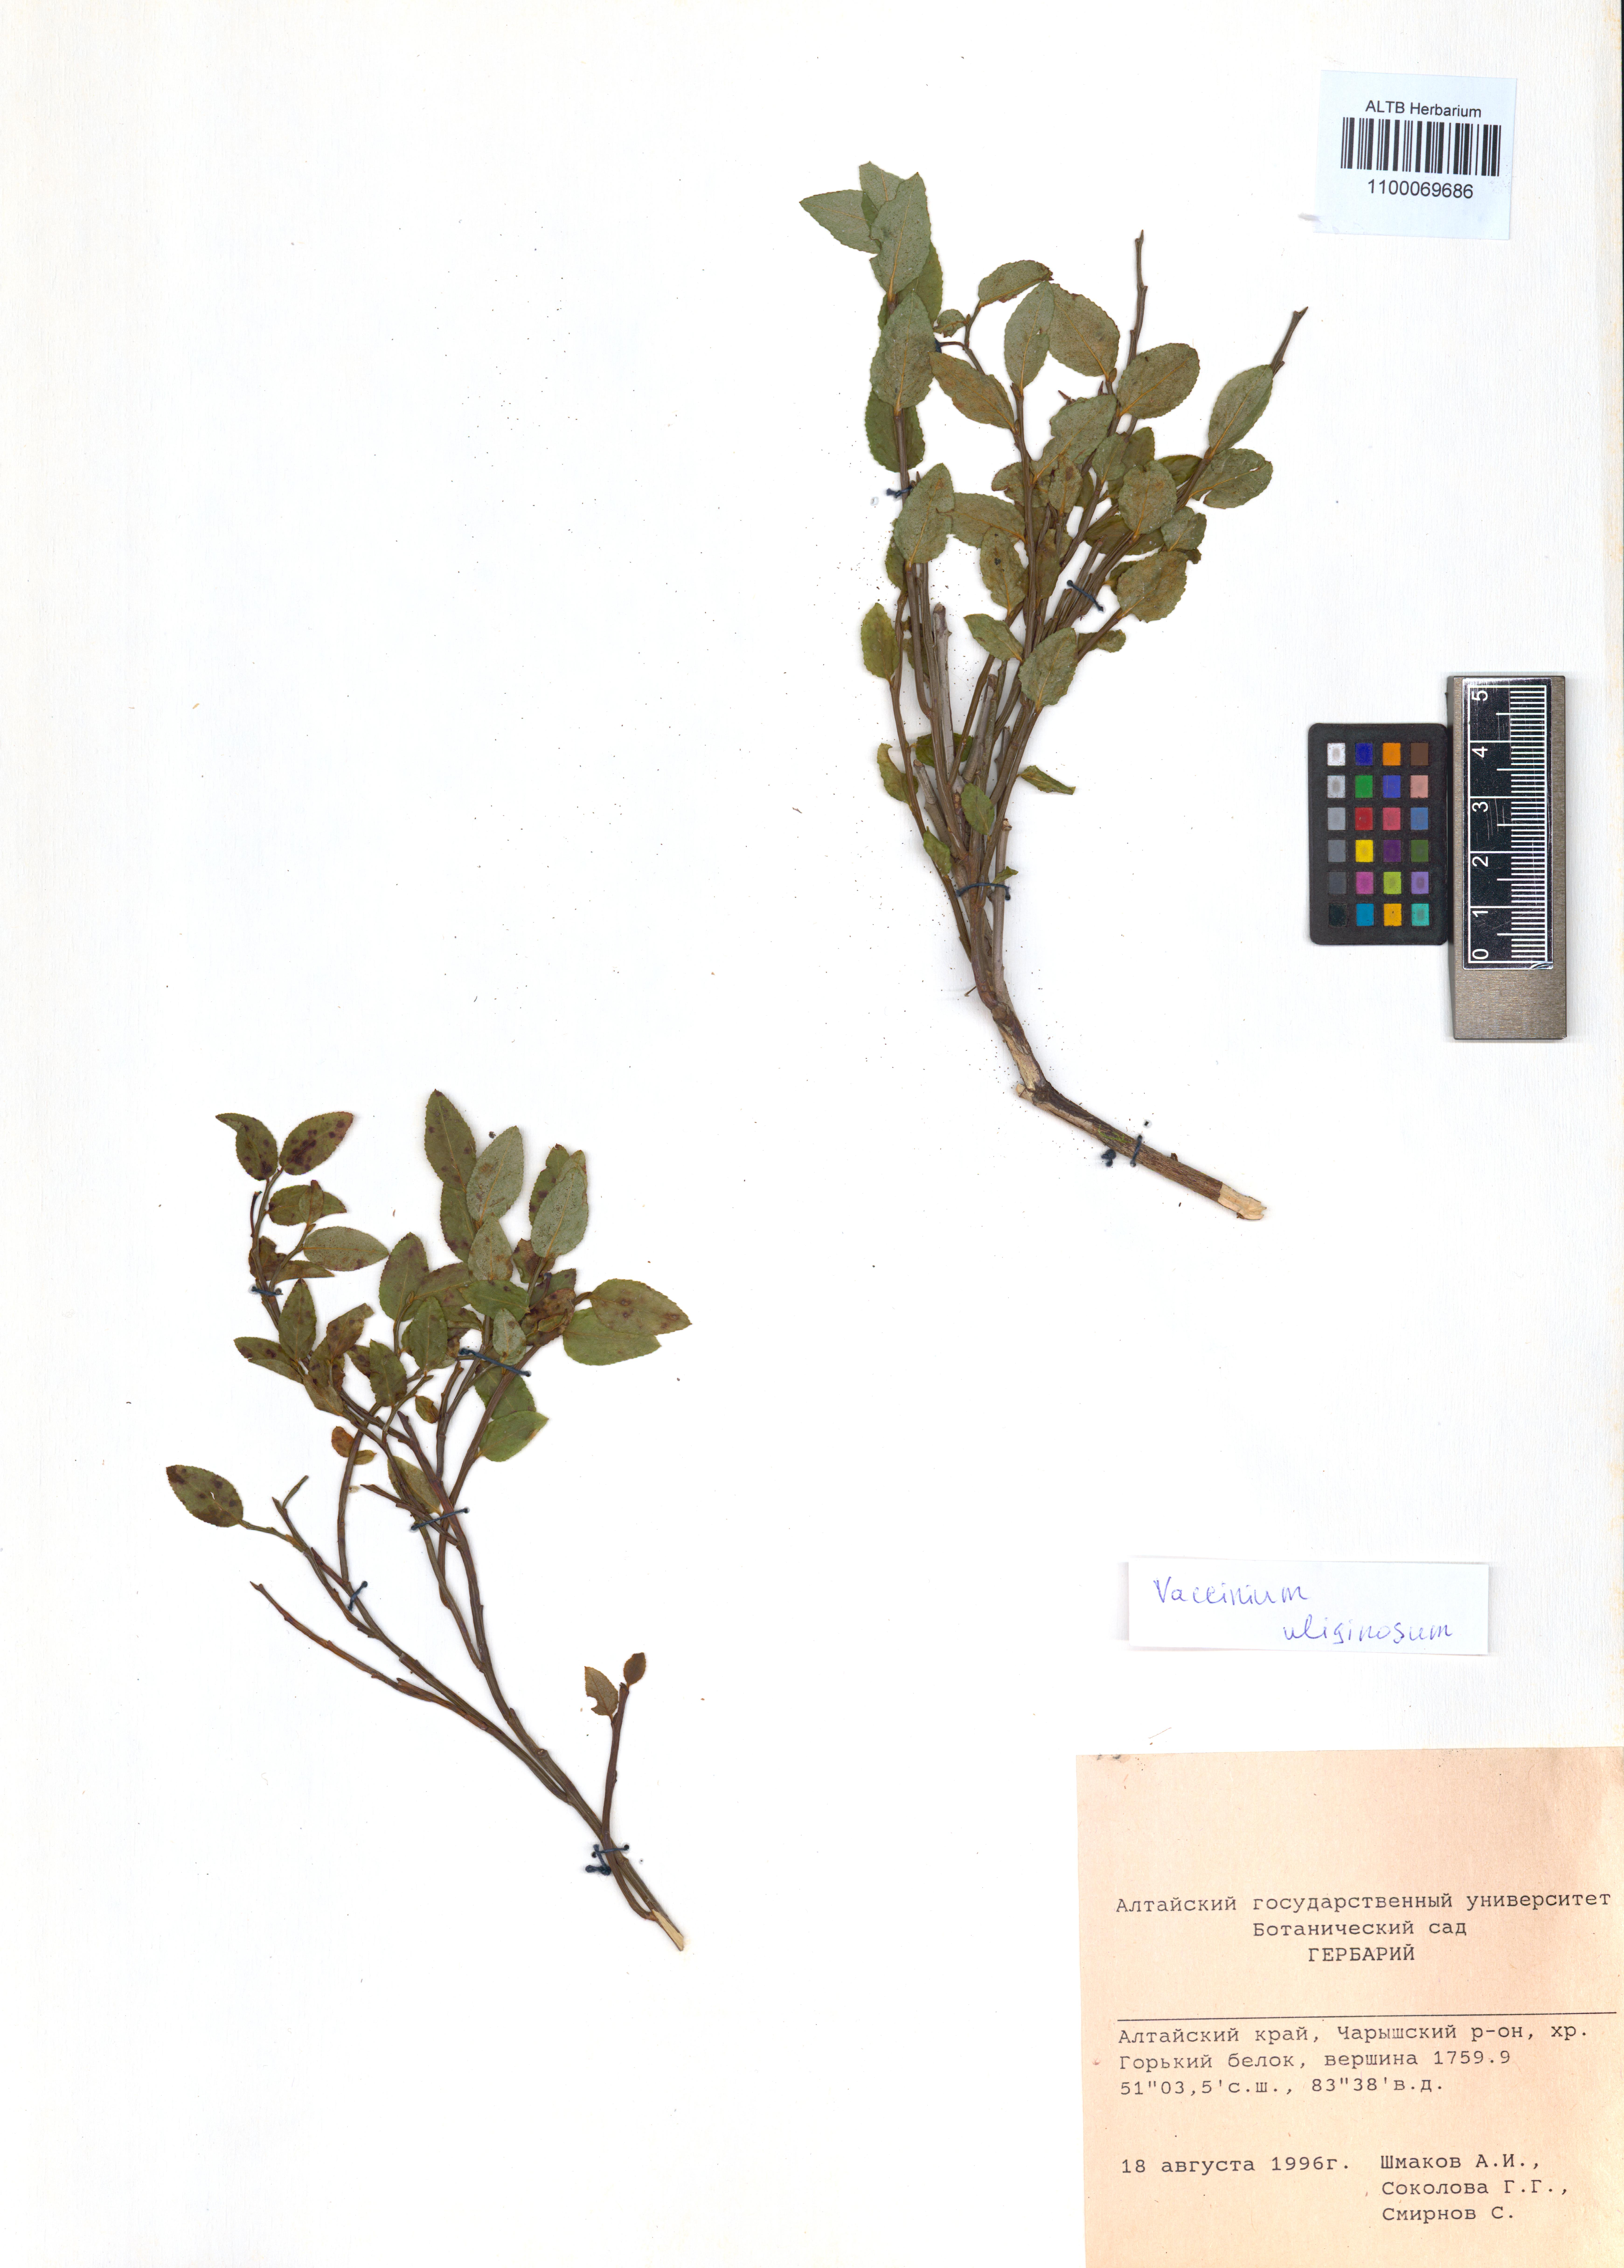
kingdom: Plantae
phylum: Tracheophyta
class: Magnoliopsida
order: Ericales
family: Ericaceae
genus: Vaccinium
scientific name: Vaccinium uliginosum
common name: Bog bilberry
